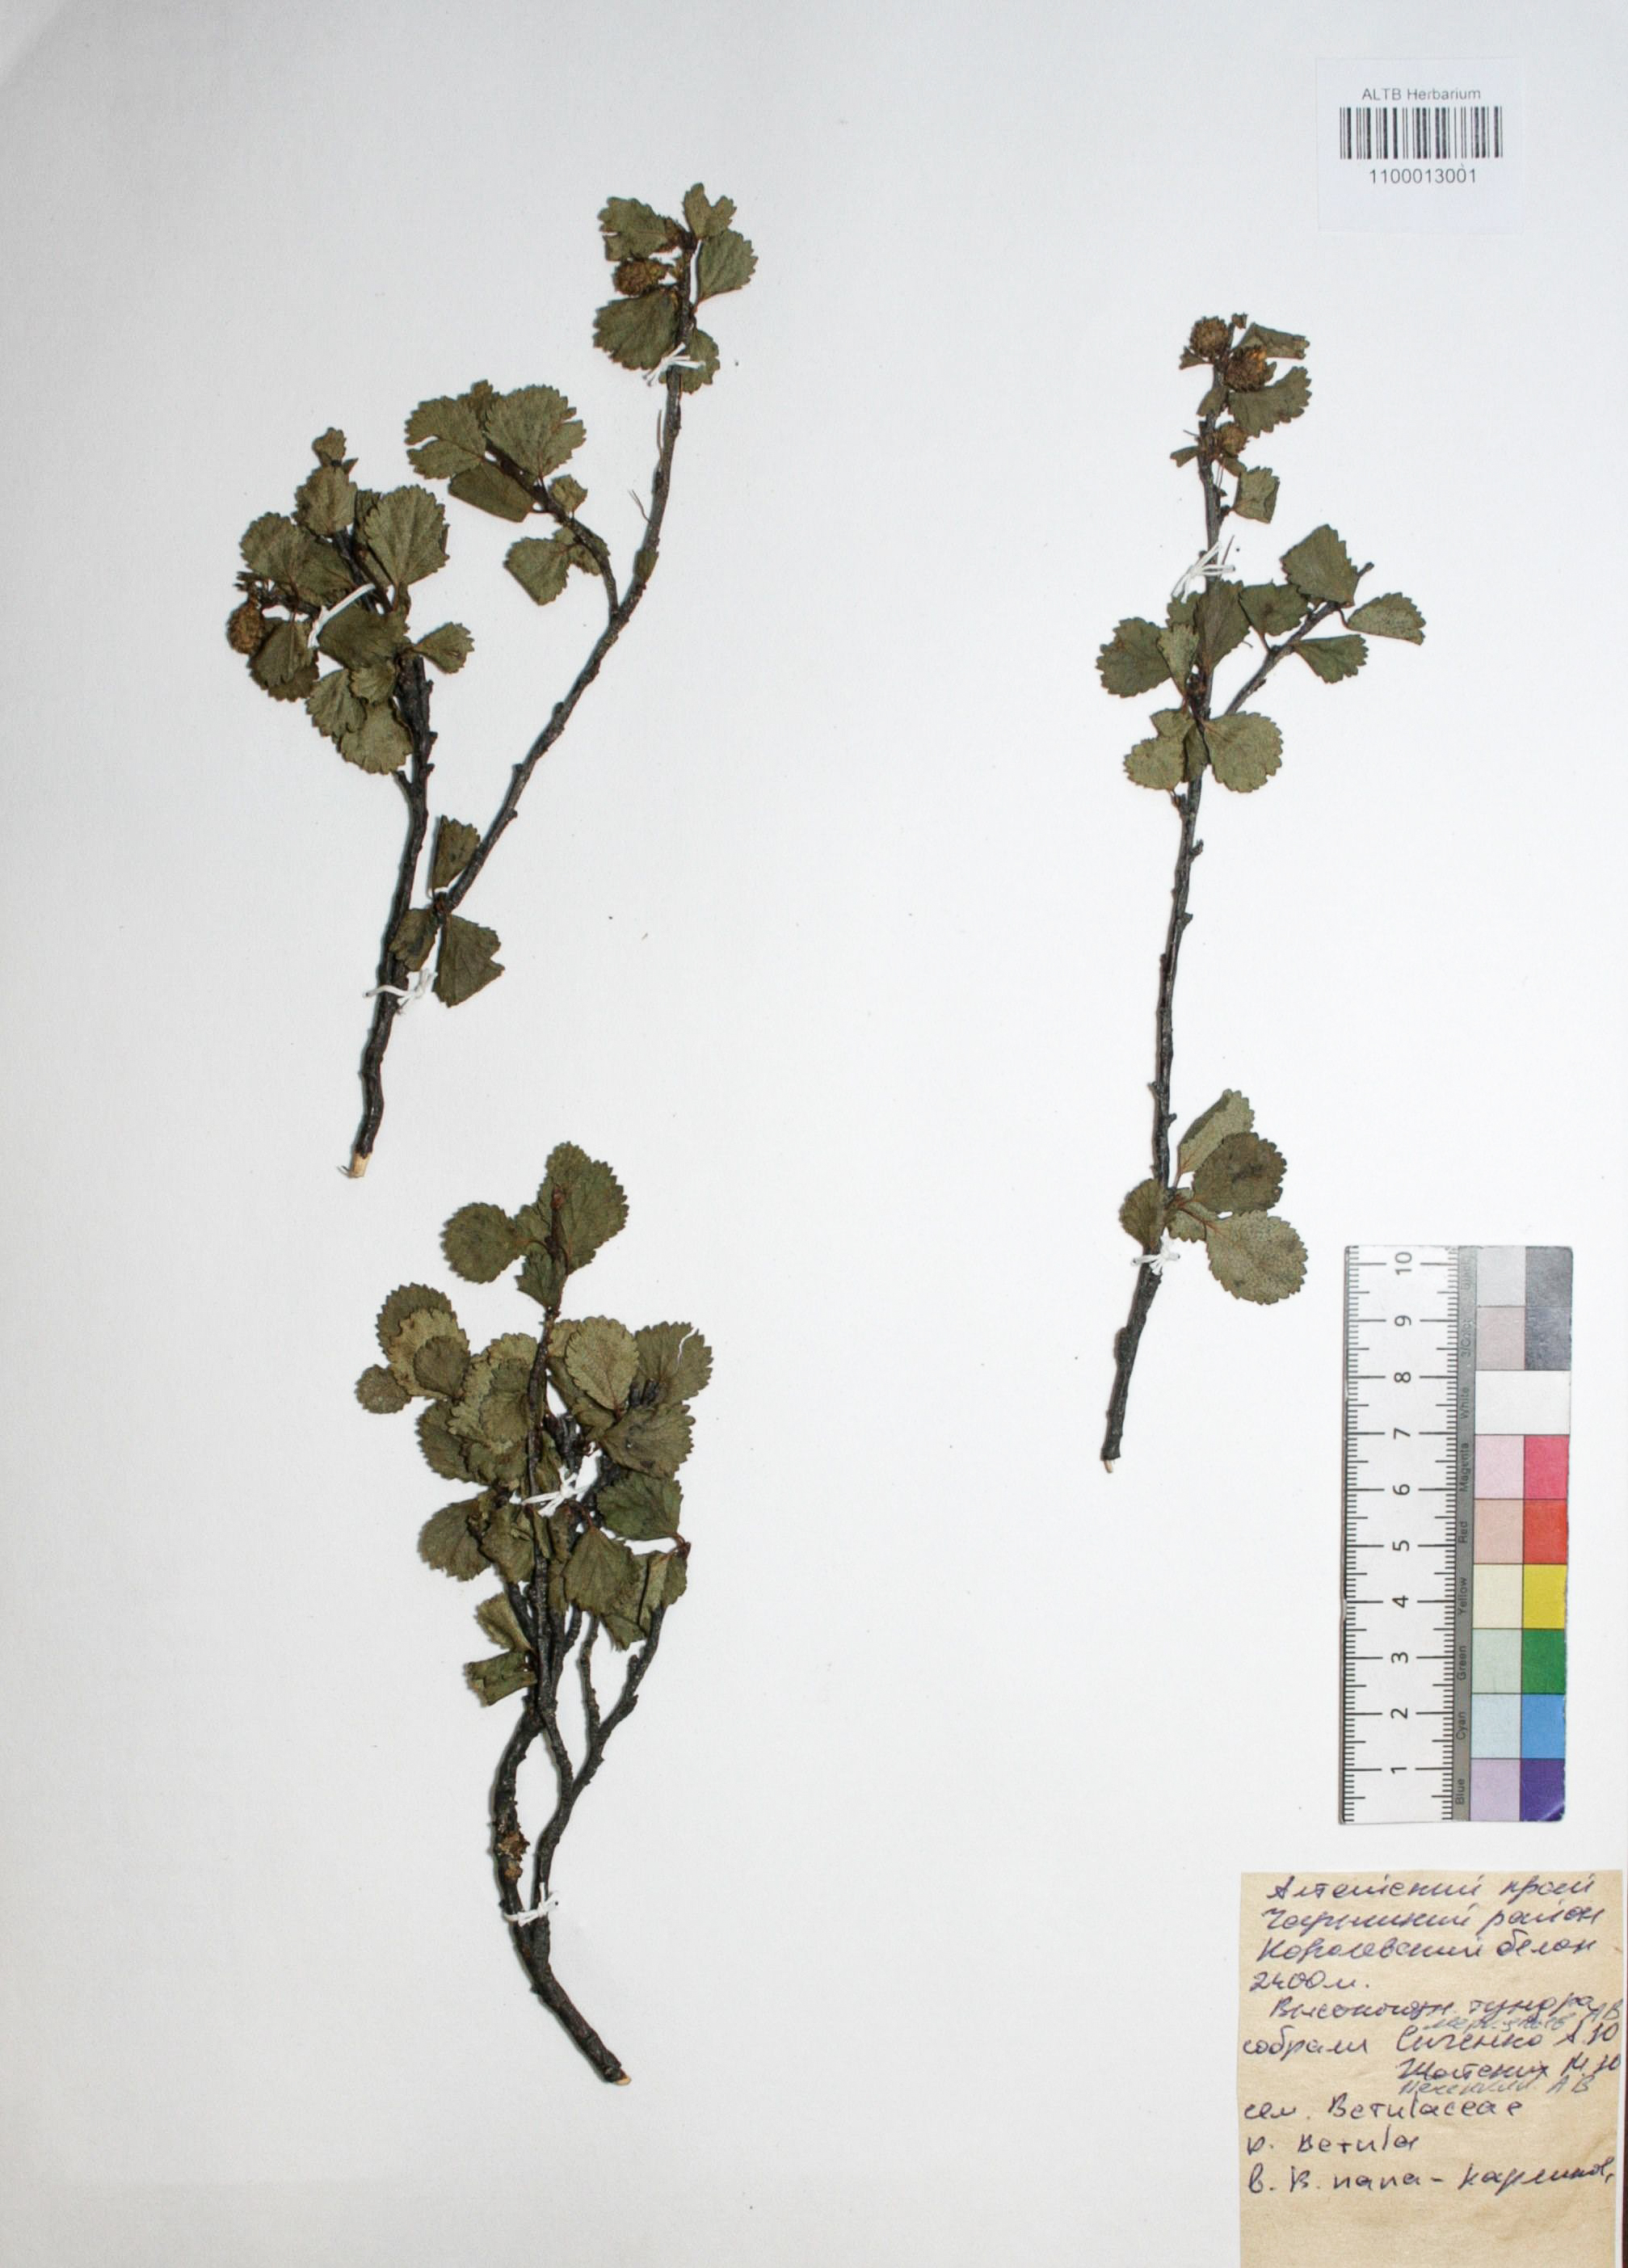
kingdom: Plantae
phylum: Tracheophyta
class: Magnoliopsida
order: Fagales
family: Betulaceae
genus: Betula
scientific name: Betula glandulosa
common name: Dwarf birch
